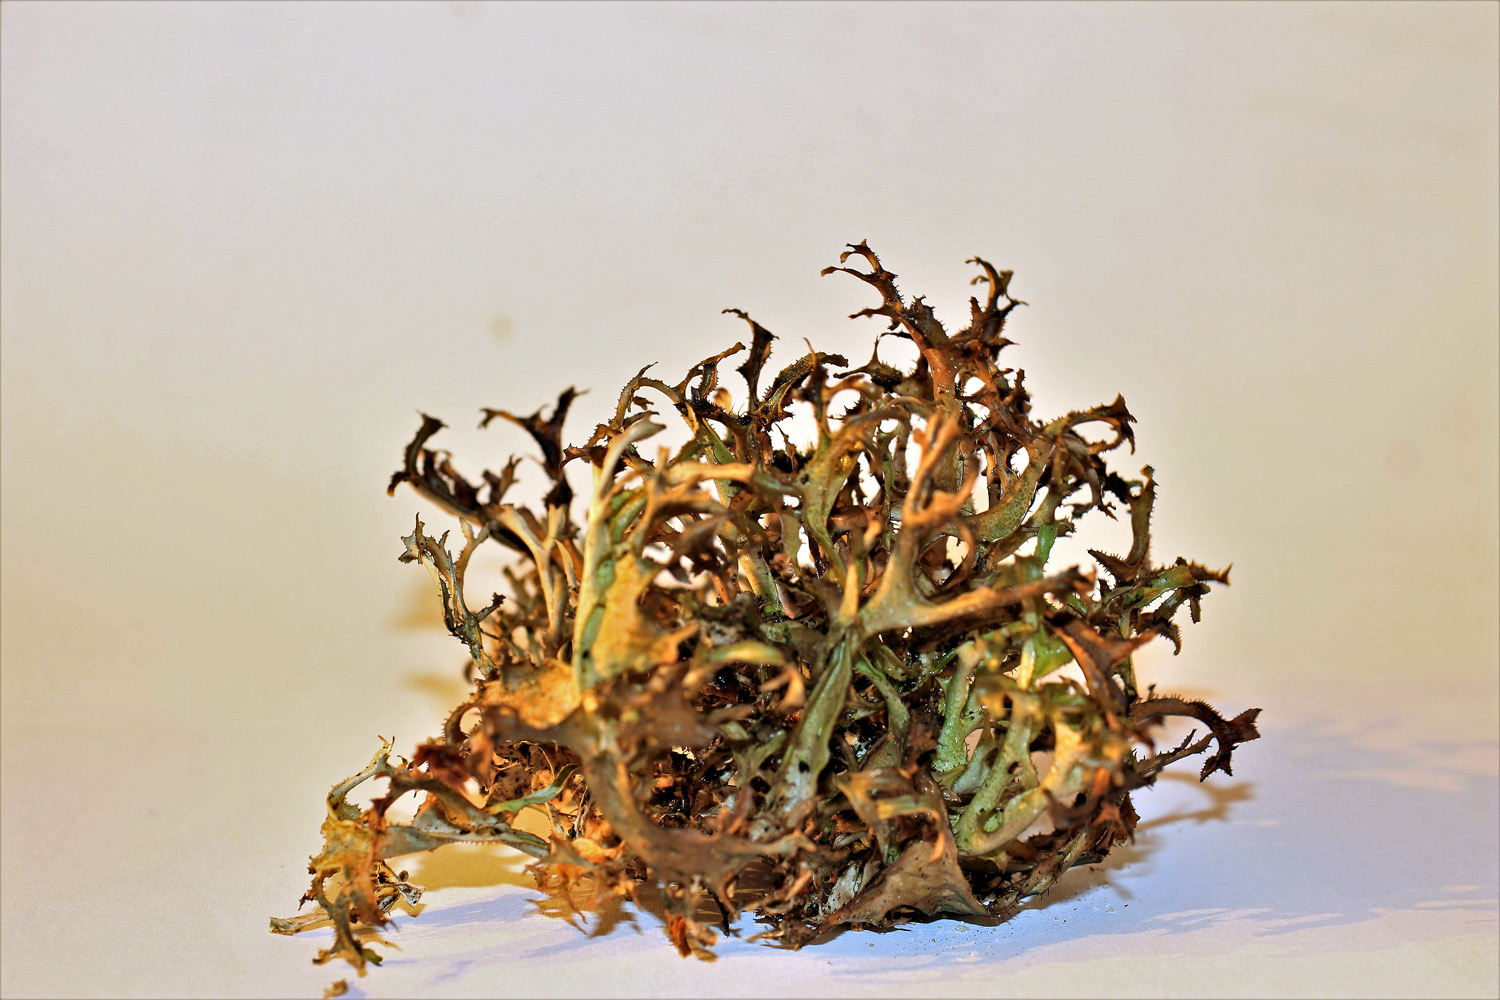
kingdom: Fungi
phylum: Ascomycota
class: Lecanoromycetes
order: Lecanorales
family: Parmeliaceae
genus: Cetraria
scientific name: Cetraria islandica
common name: islandsk kruslav
